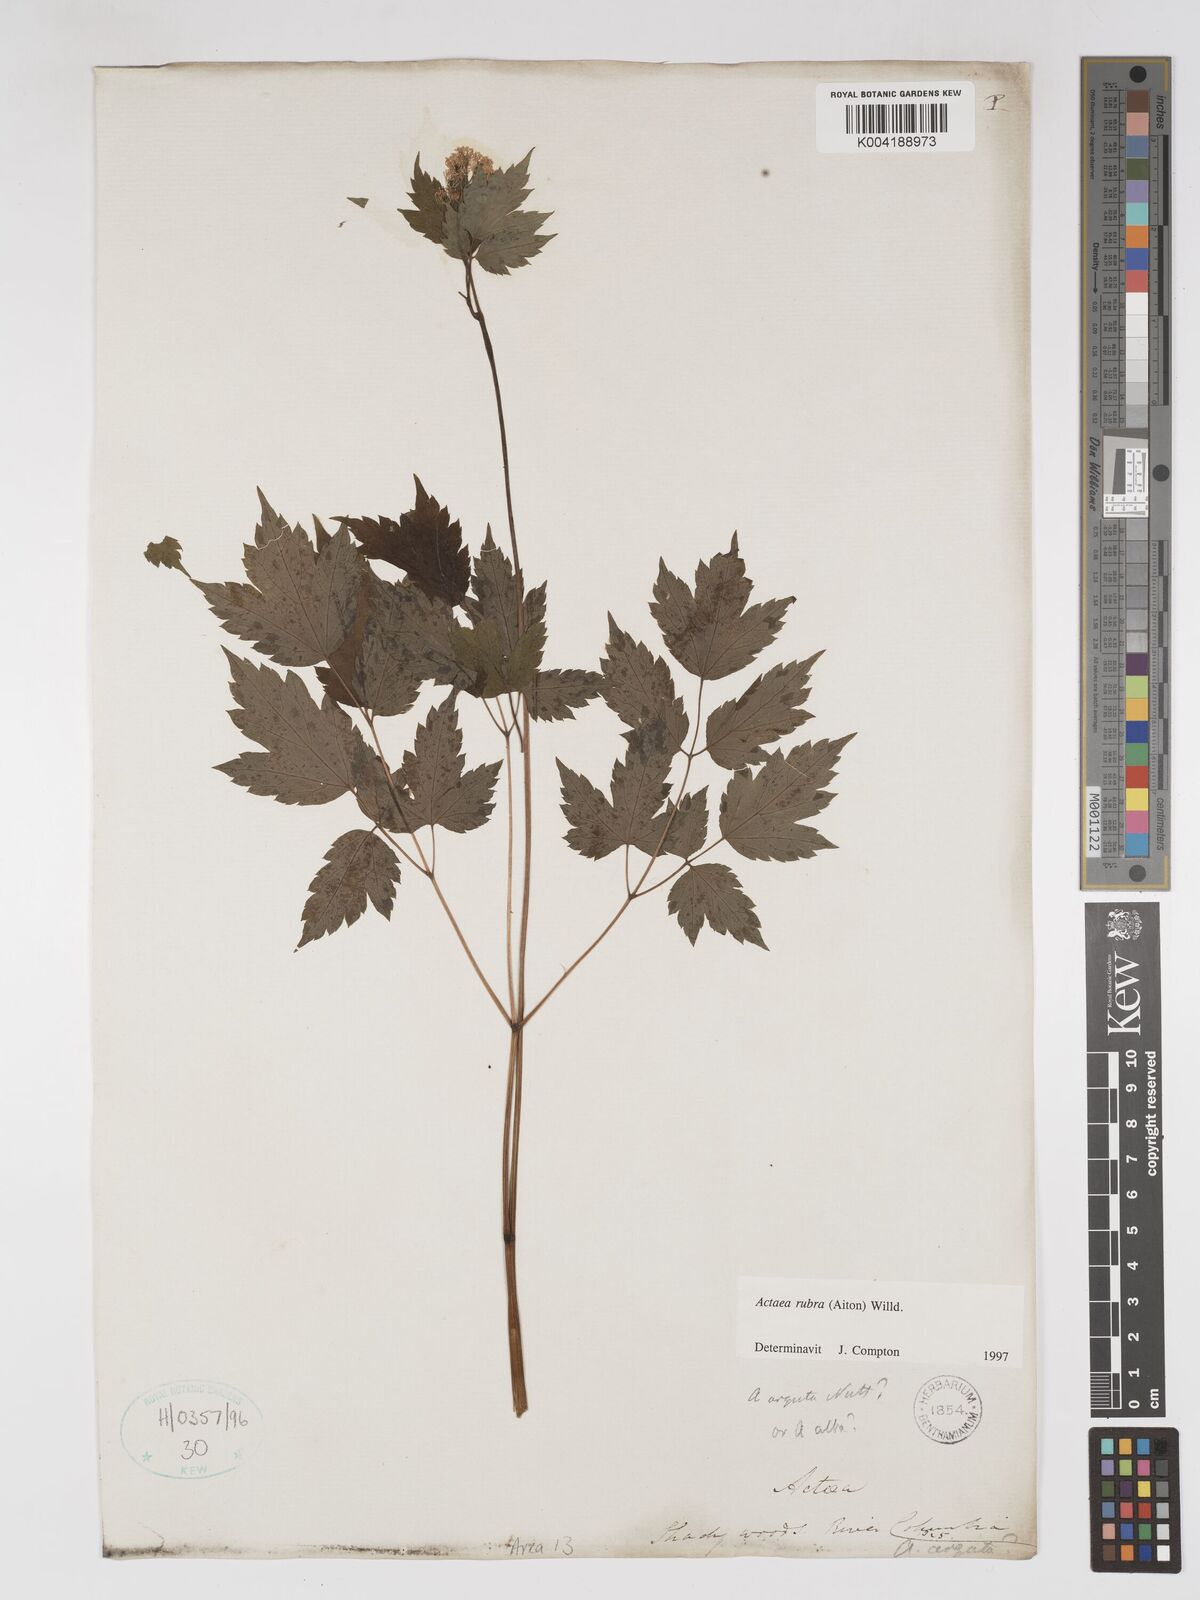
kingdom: Plantae
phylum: Tracheophyta
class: Magnoliopsida
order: Ranunculales
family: Ranunculaceae
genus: Actaea
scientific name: Actaea rubra
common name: Red baneberry
